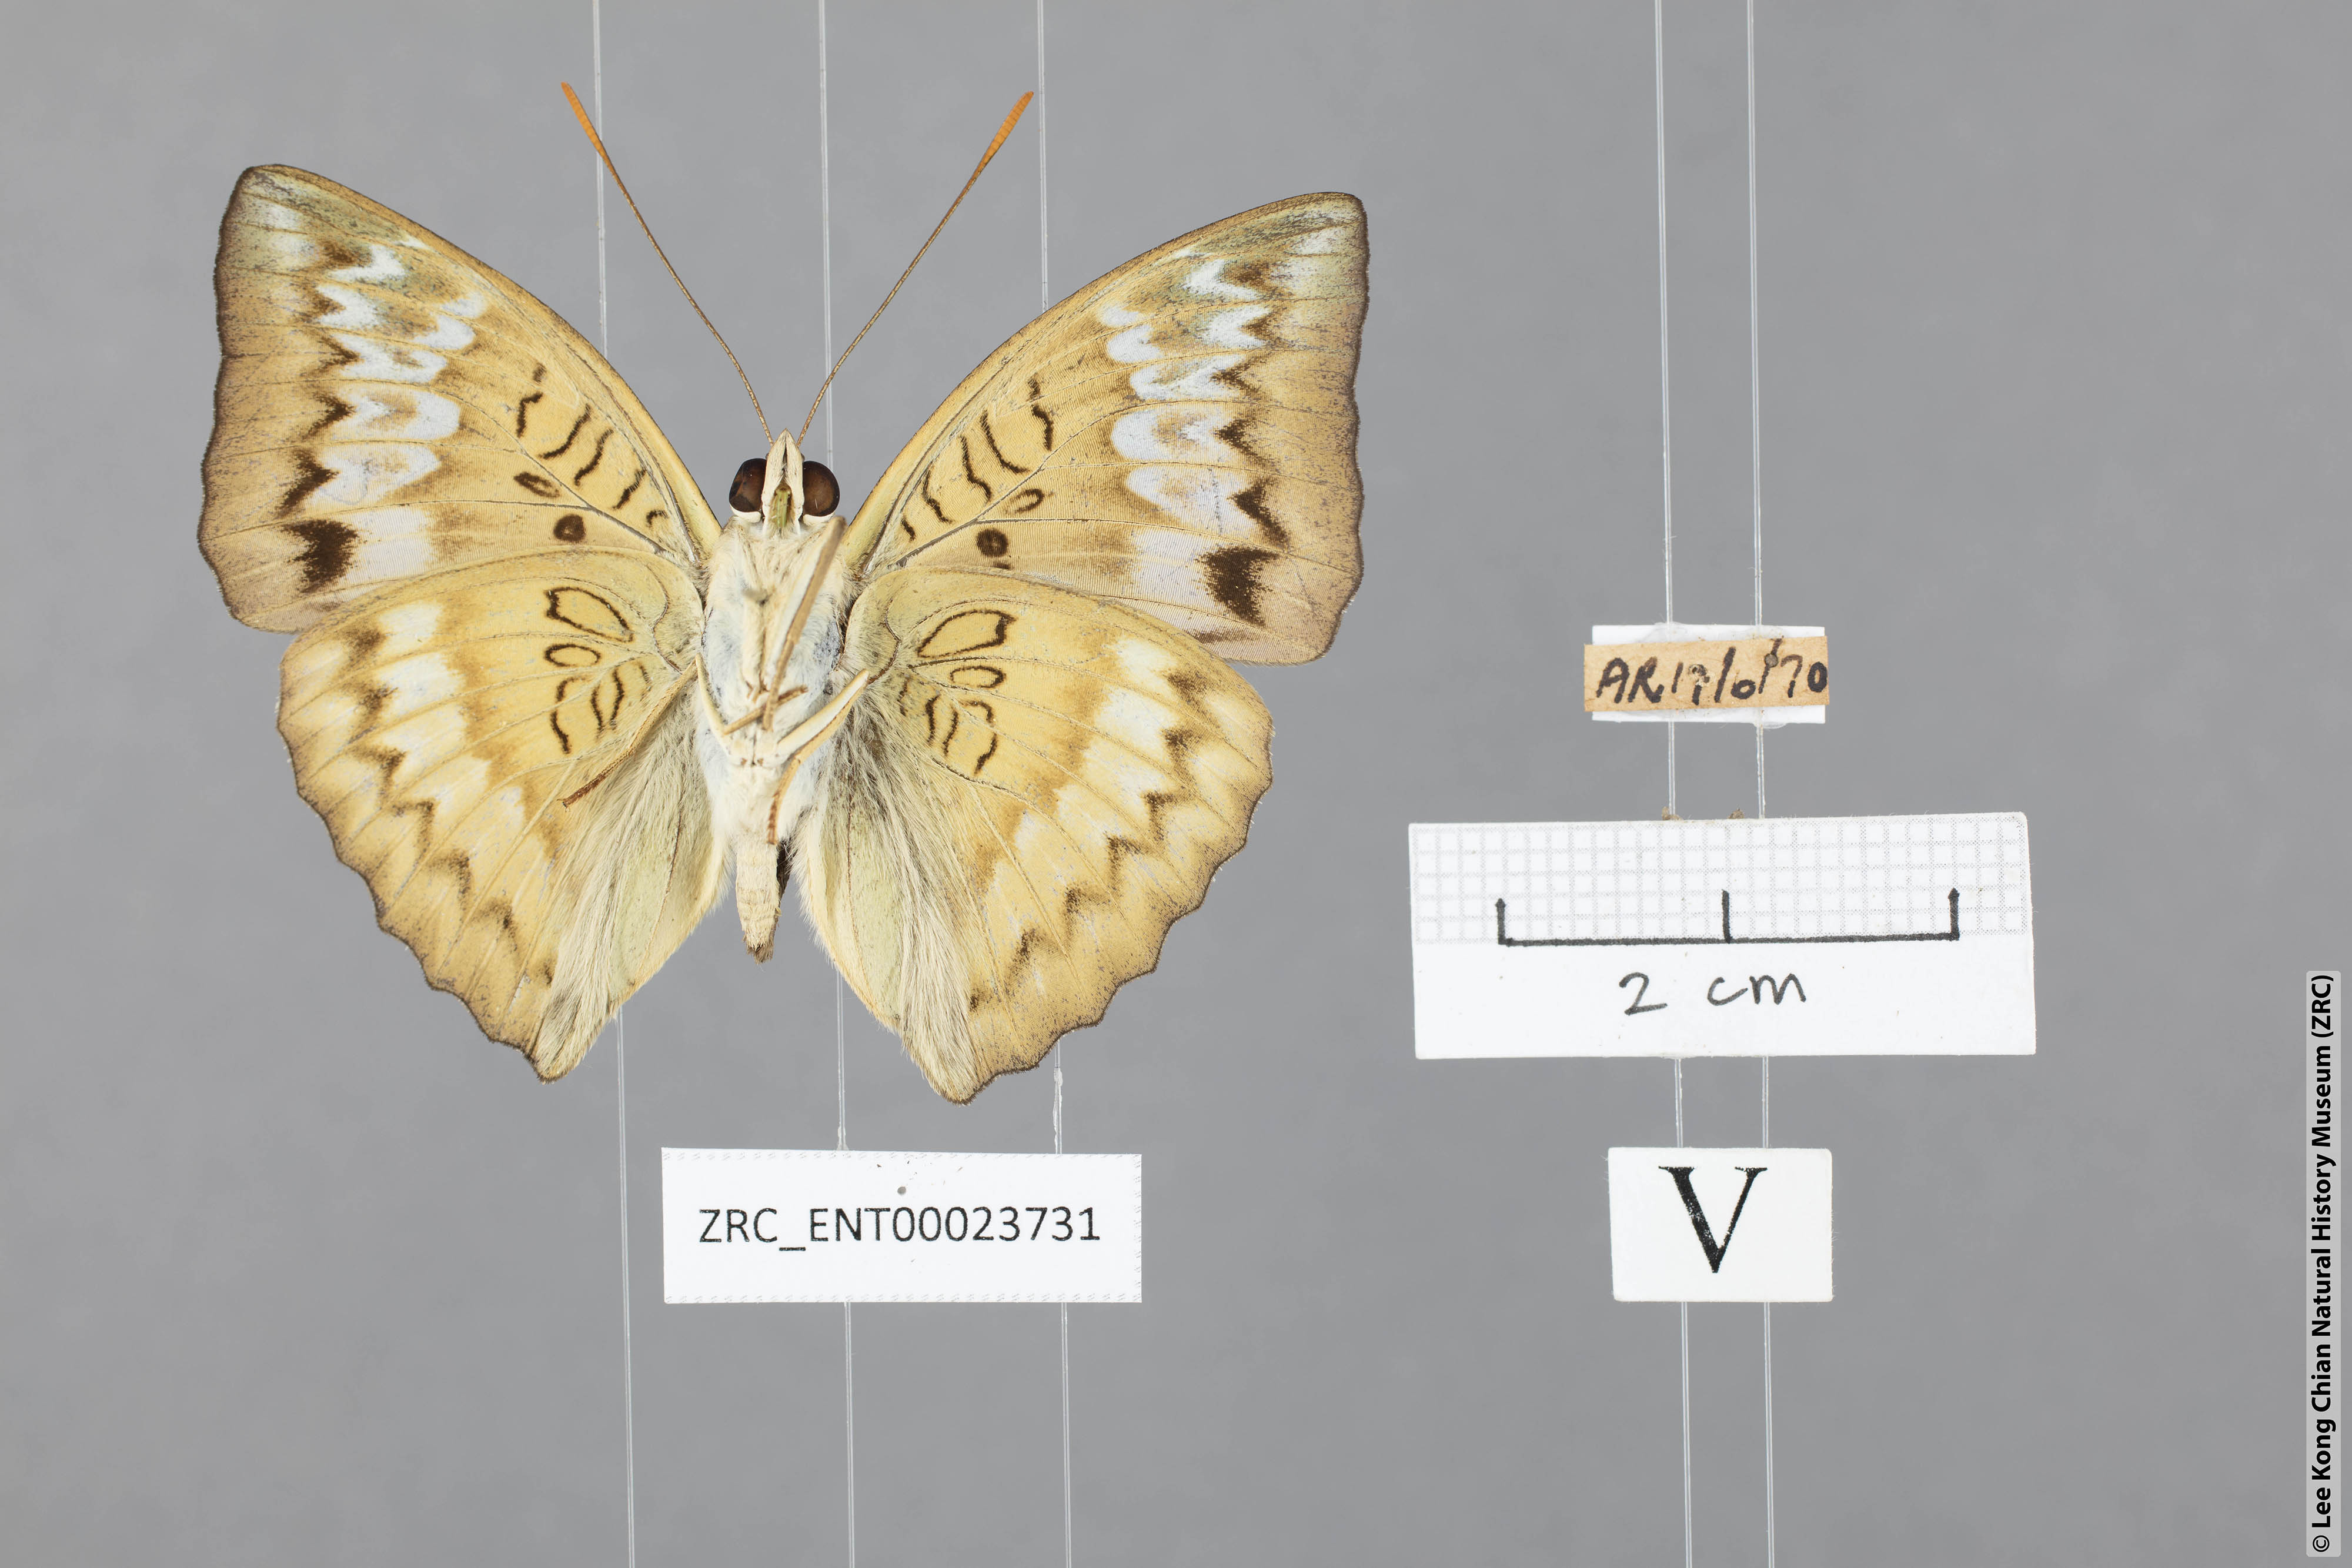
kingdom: Animalia
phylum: Arthropoda
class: Insecta
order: Lepidoptera
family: Nymphalidae
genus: Euthalia
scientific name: Euthalia monina
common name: Powdered baron
